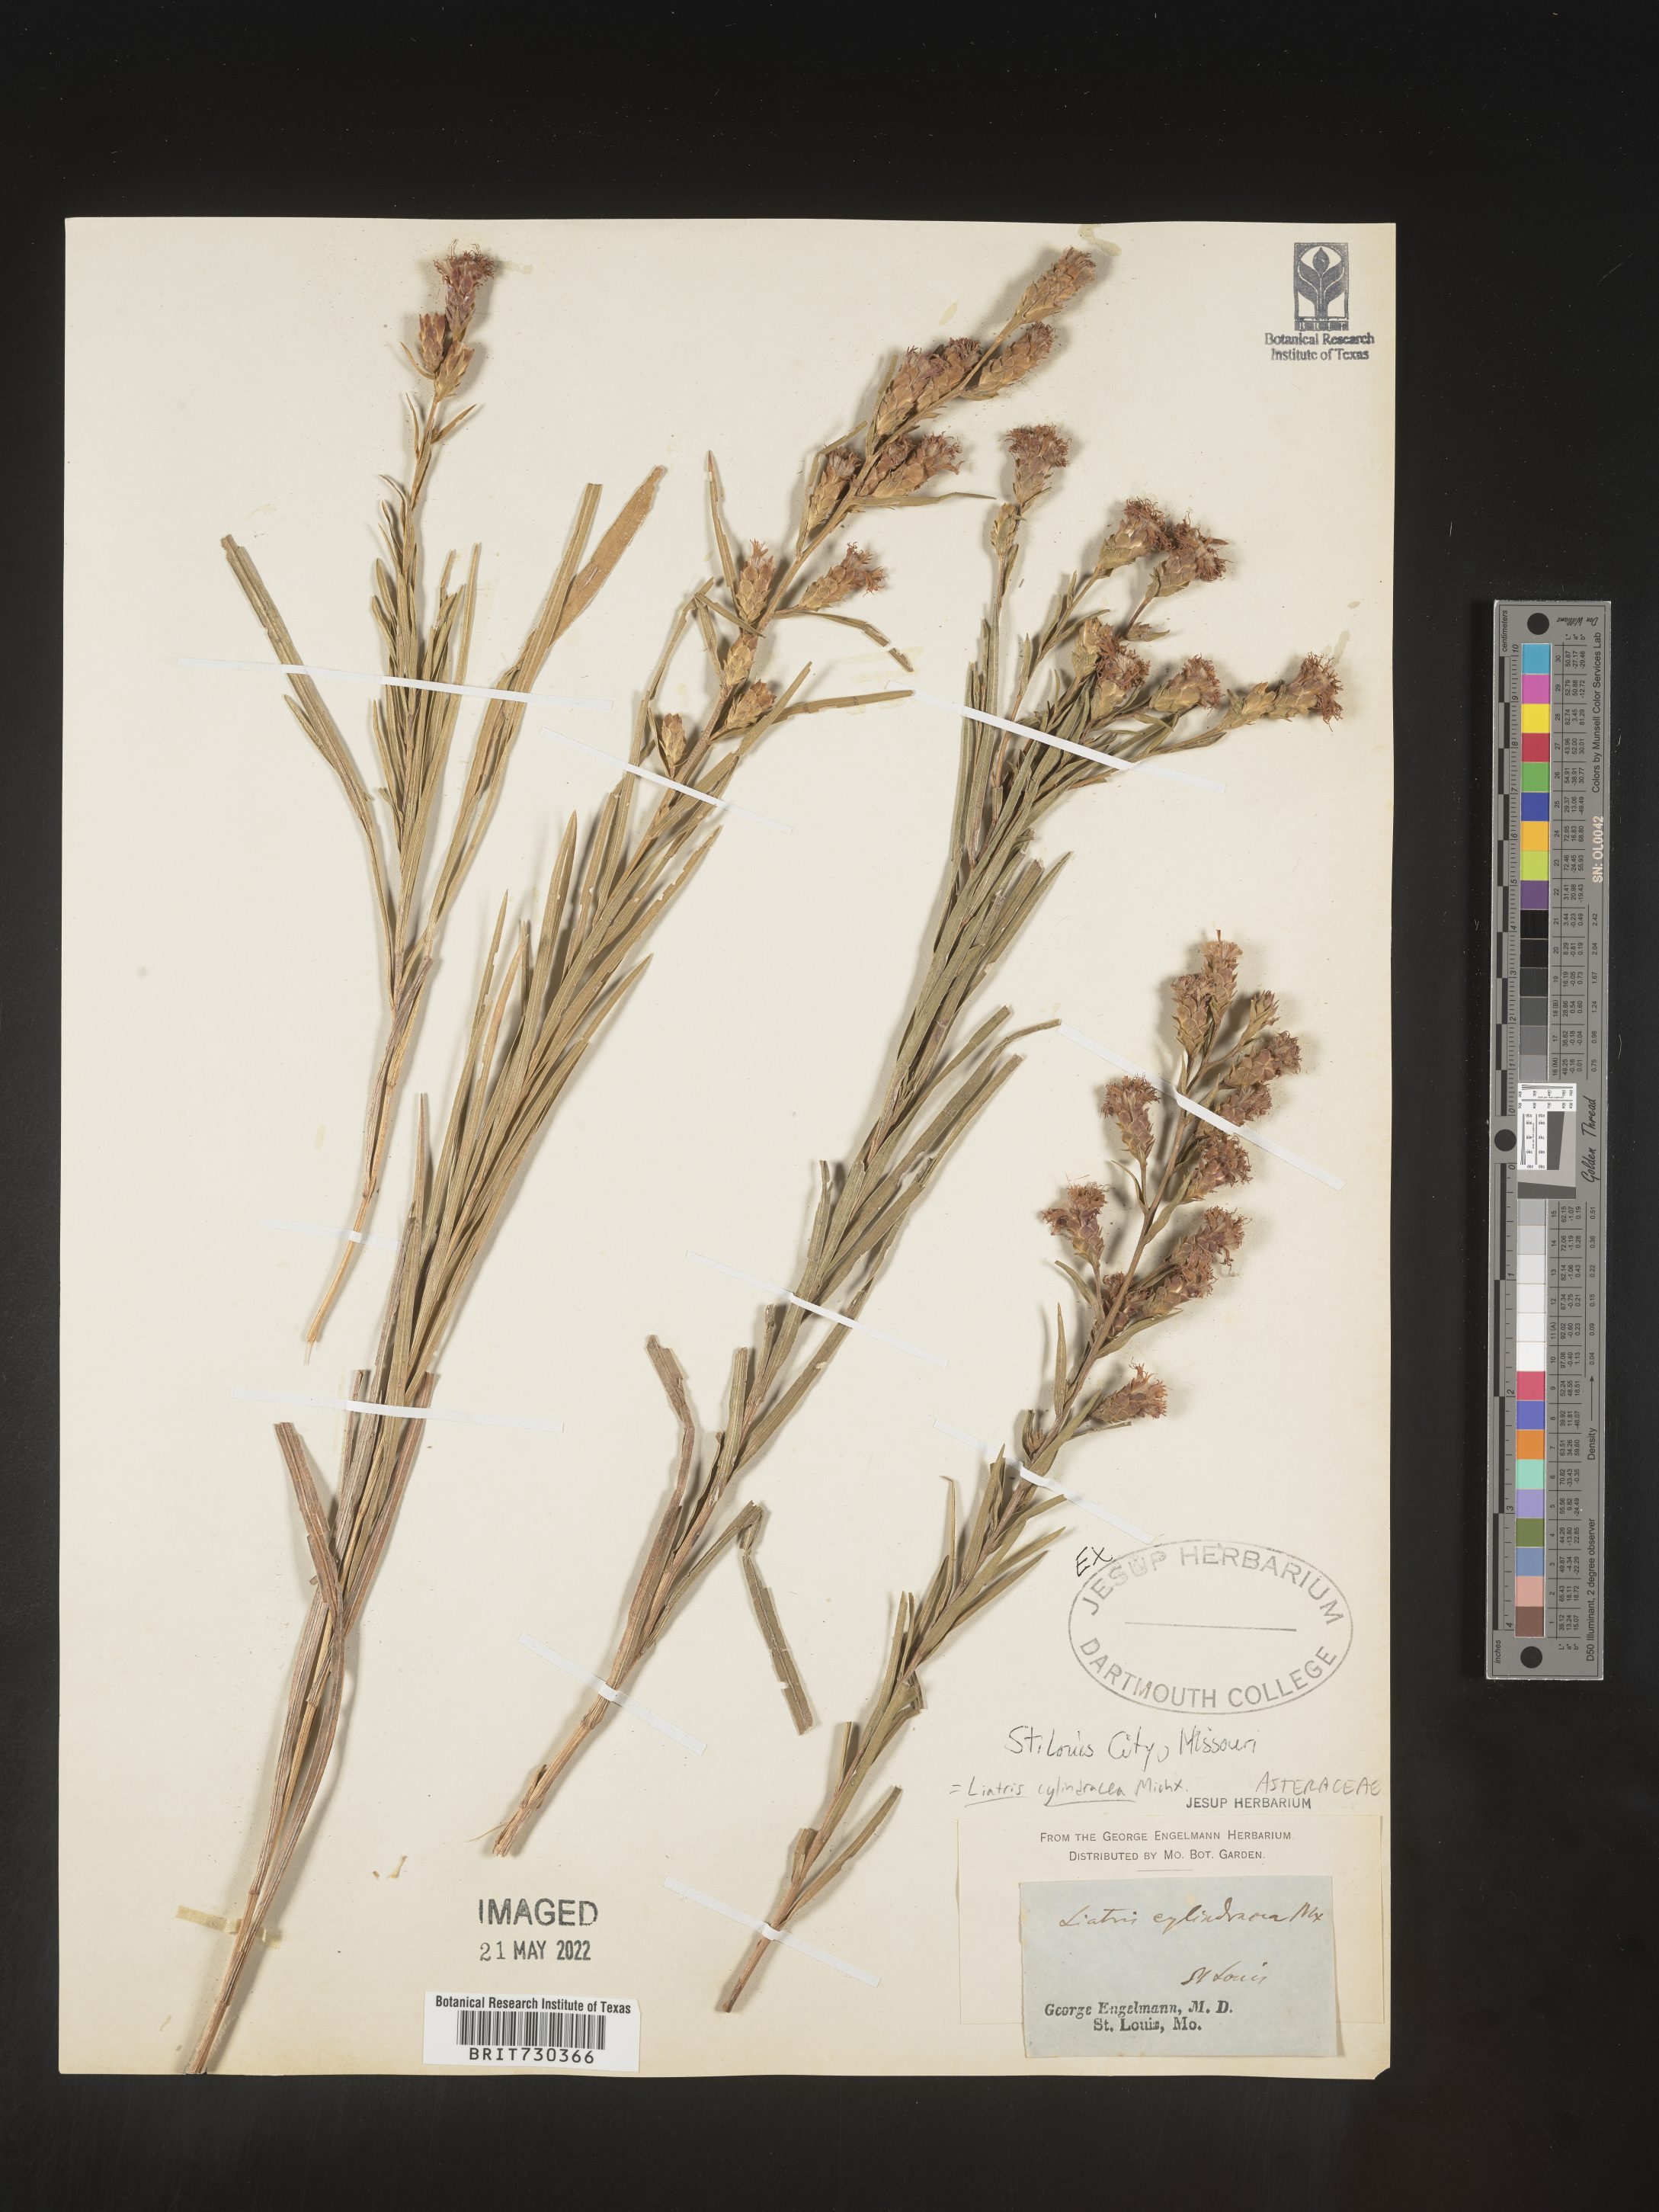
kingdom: Plantae
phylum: Tracheophyta
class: Magnoliopsida
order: Asterales
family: Asteraceae
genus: Liatris
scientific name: Liatris cylindracea
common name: Few-head blazingstar
